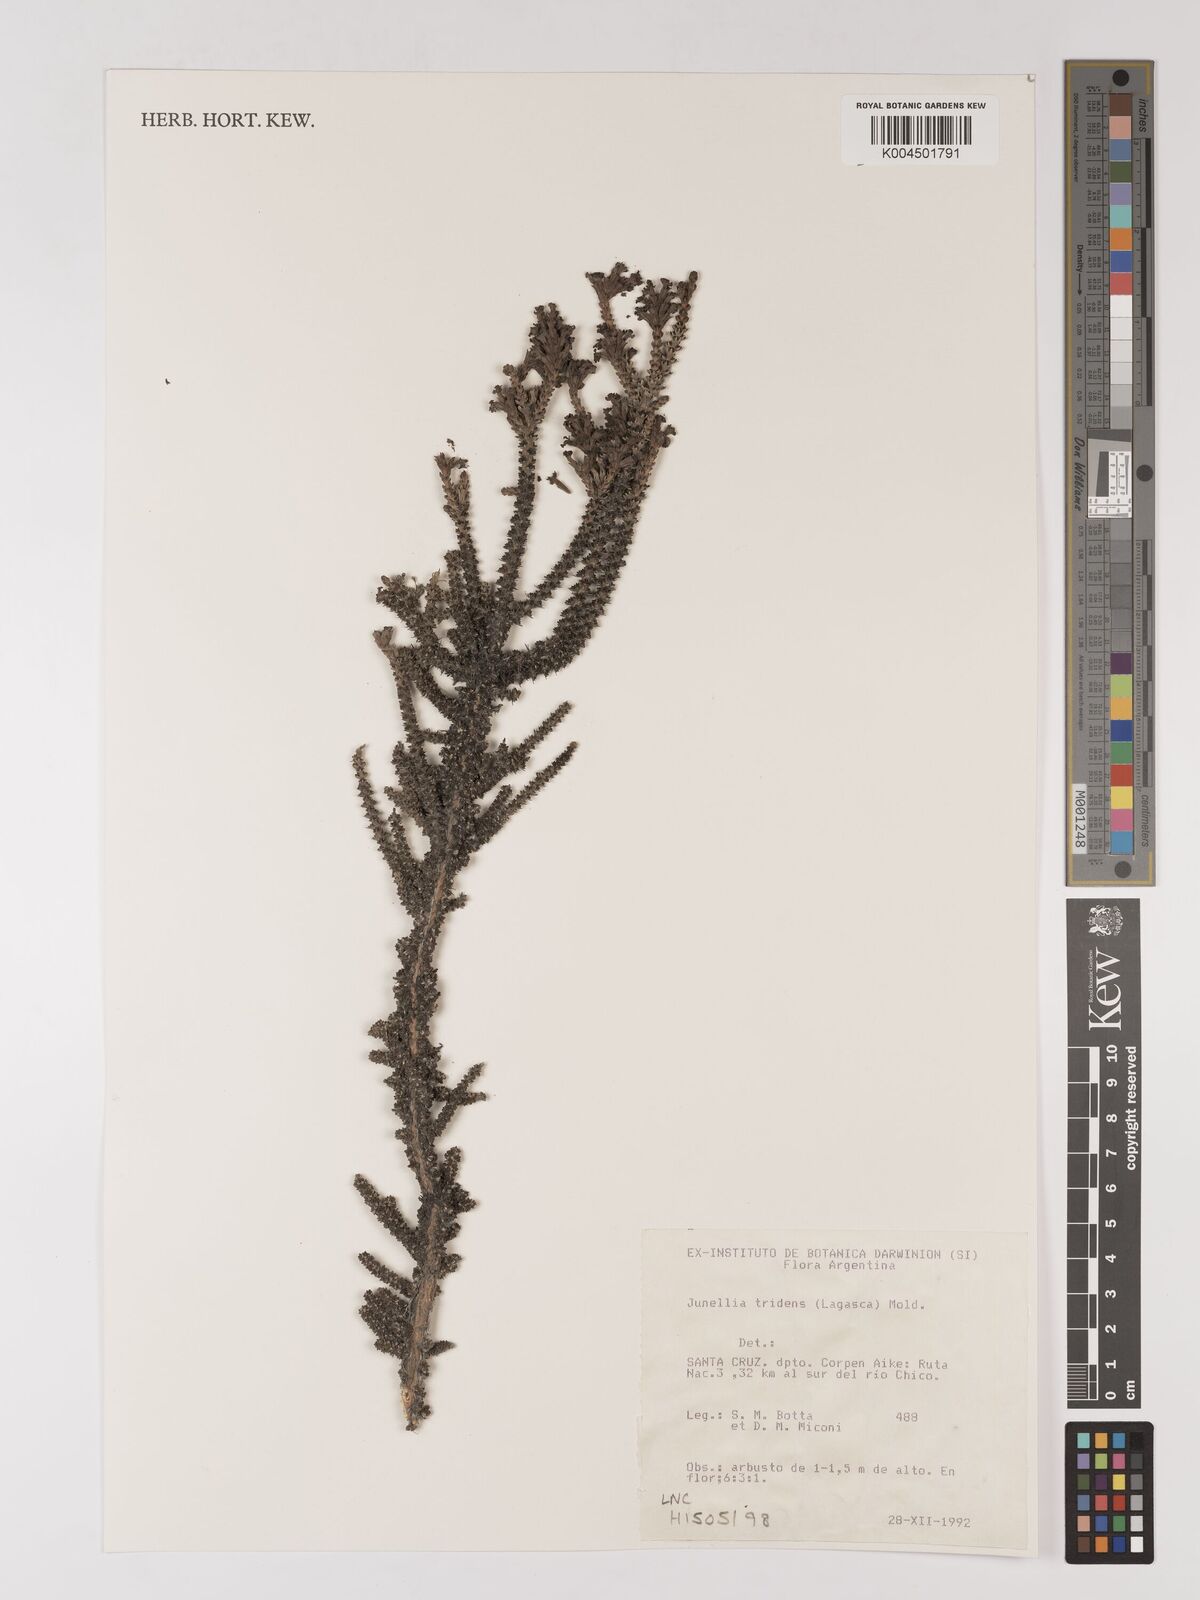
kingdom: Plantae
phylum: Tracheophyta
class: Magnoliopsida
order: Lamiales
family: Verbenaceae
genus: Mulguraea
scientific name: Mulguraea tridens
